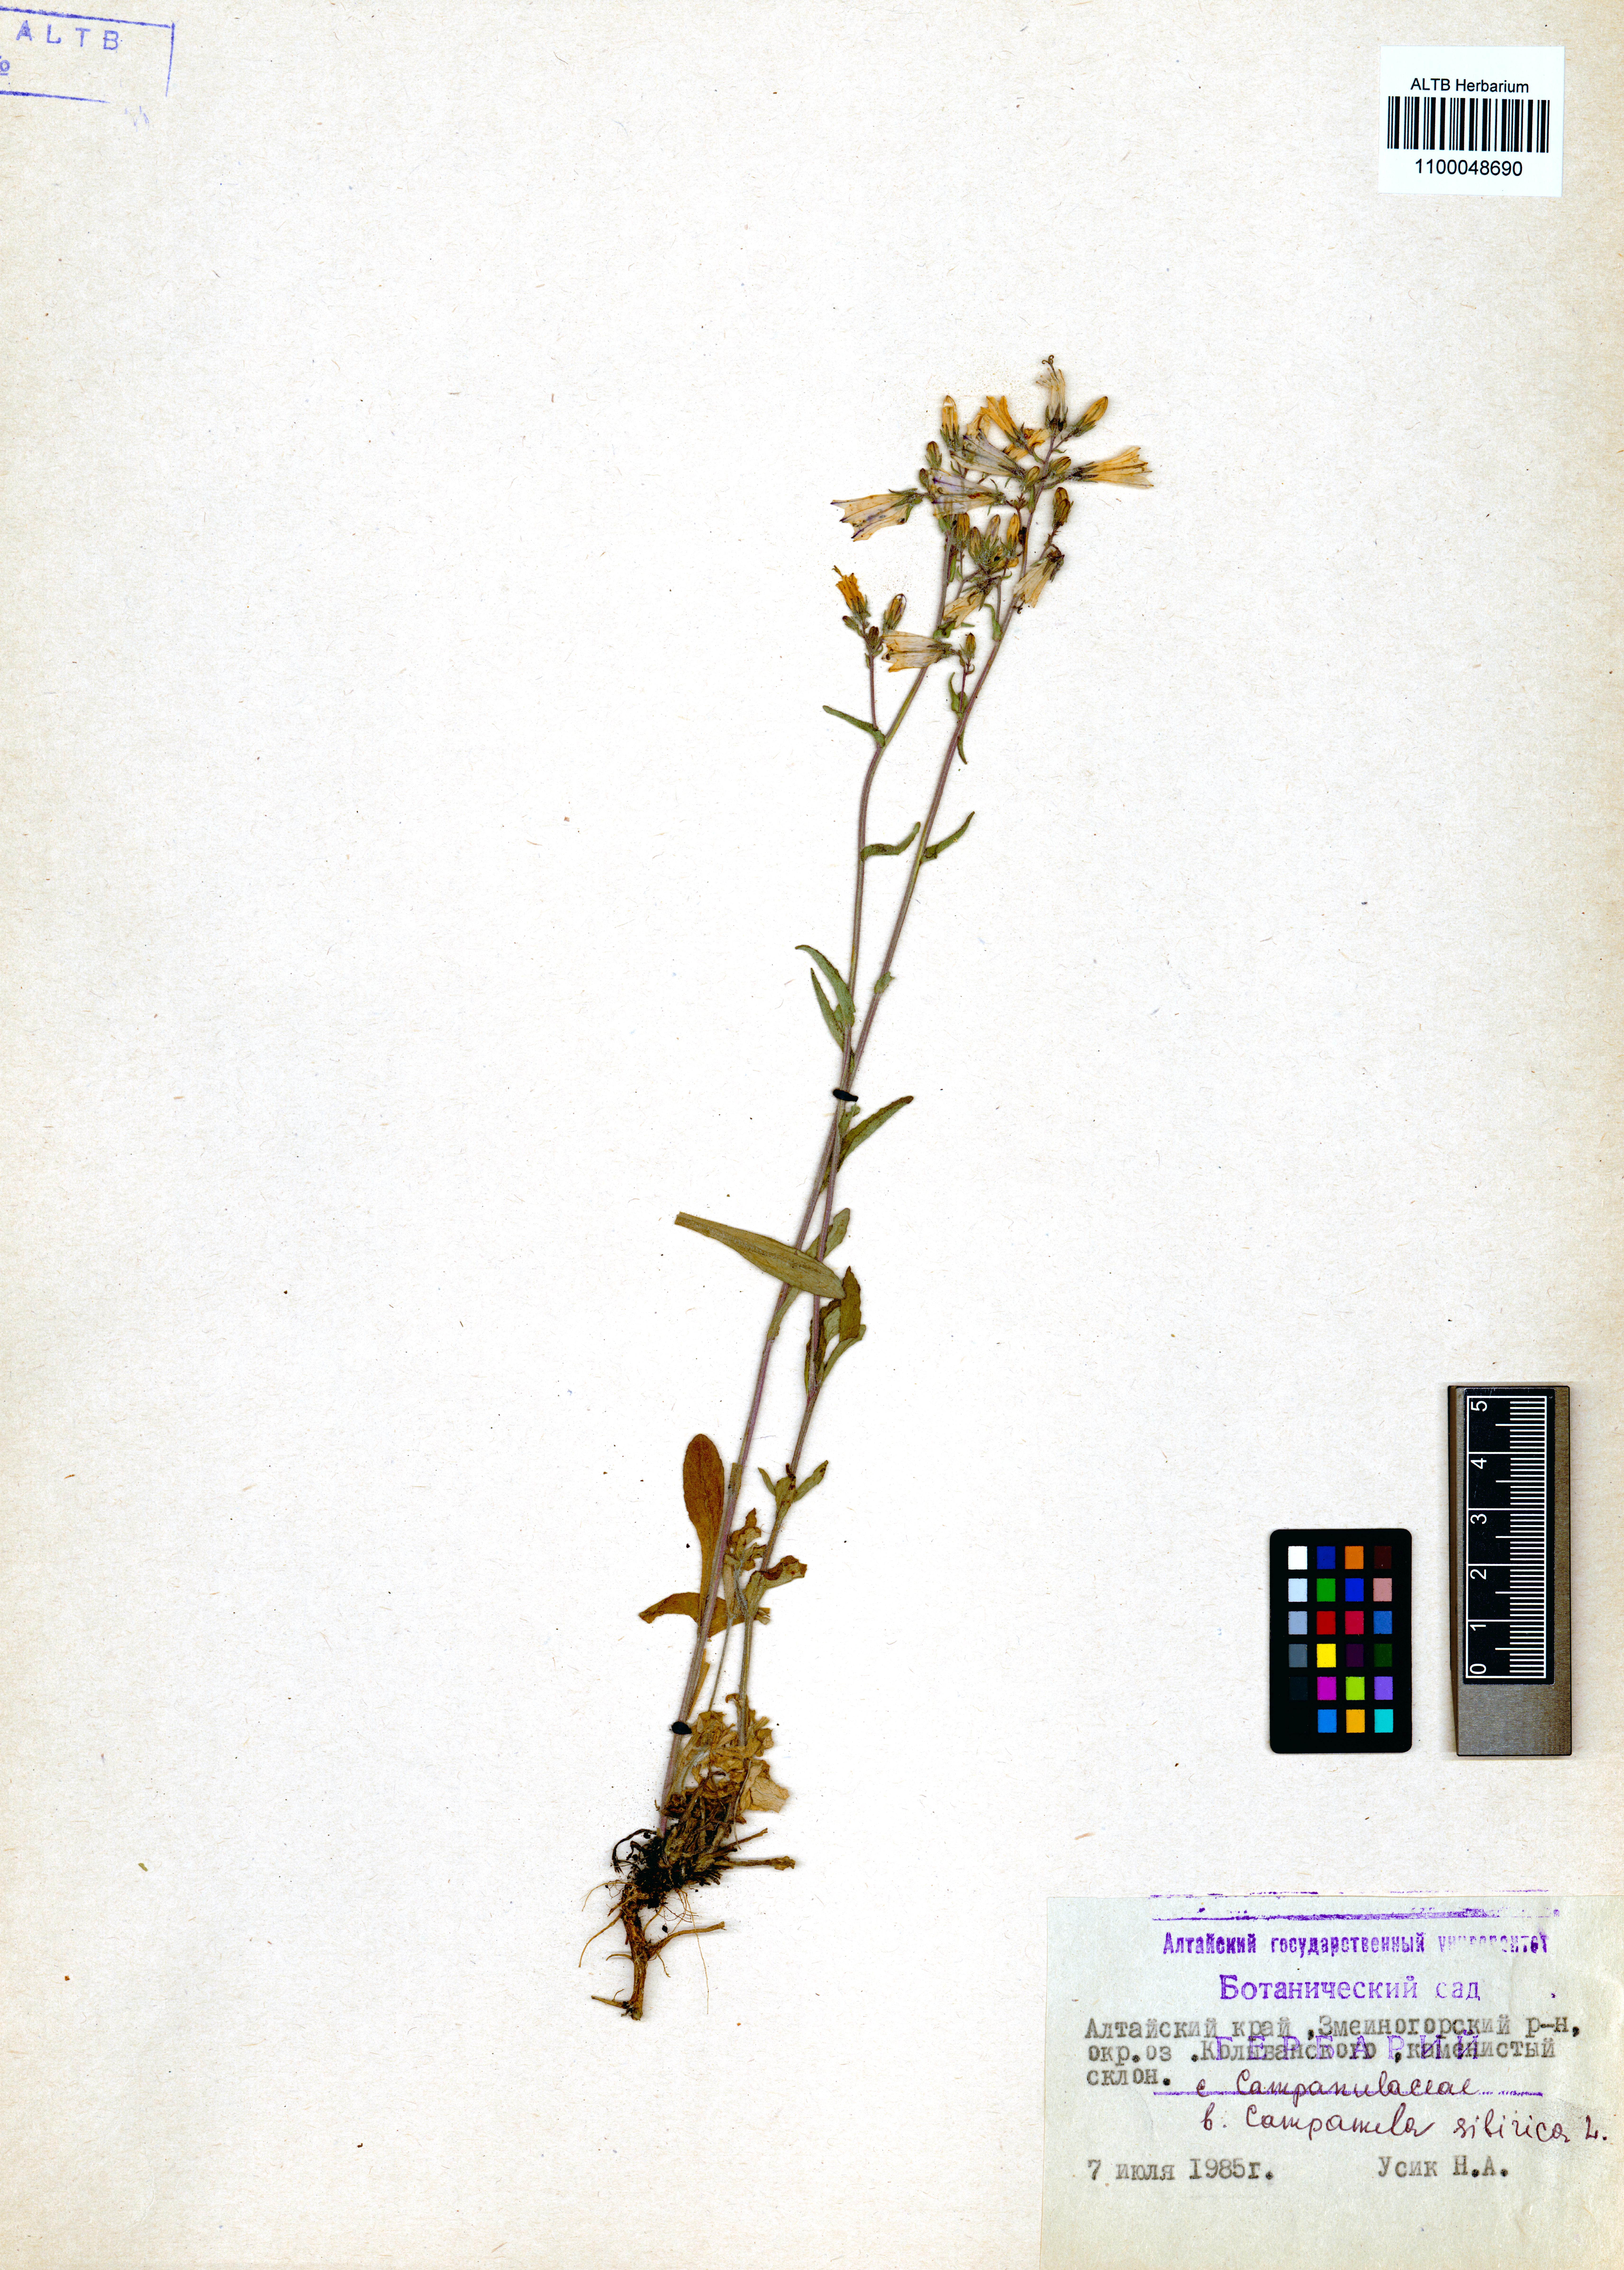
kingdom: Plantae
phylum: Tracheophyta
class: Magnoliopsida
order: Asterales
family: Campanulaceae
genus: Campanula
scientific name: Campanula sibirica
